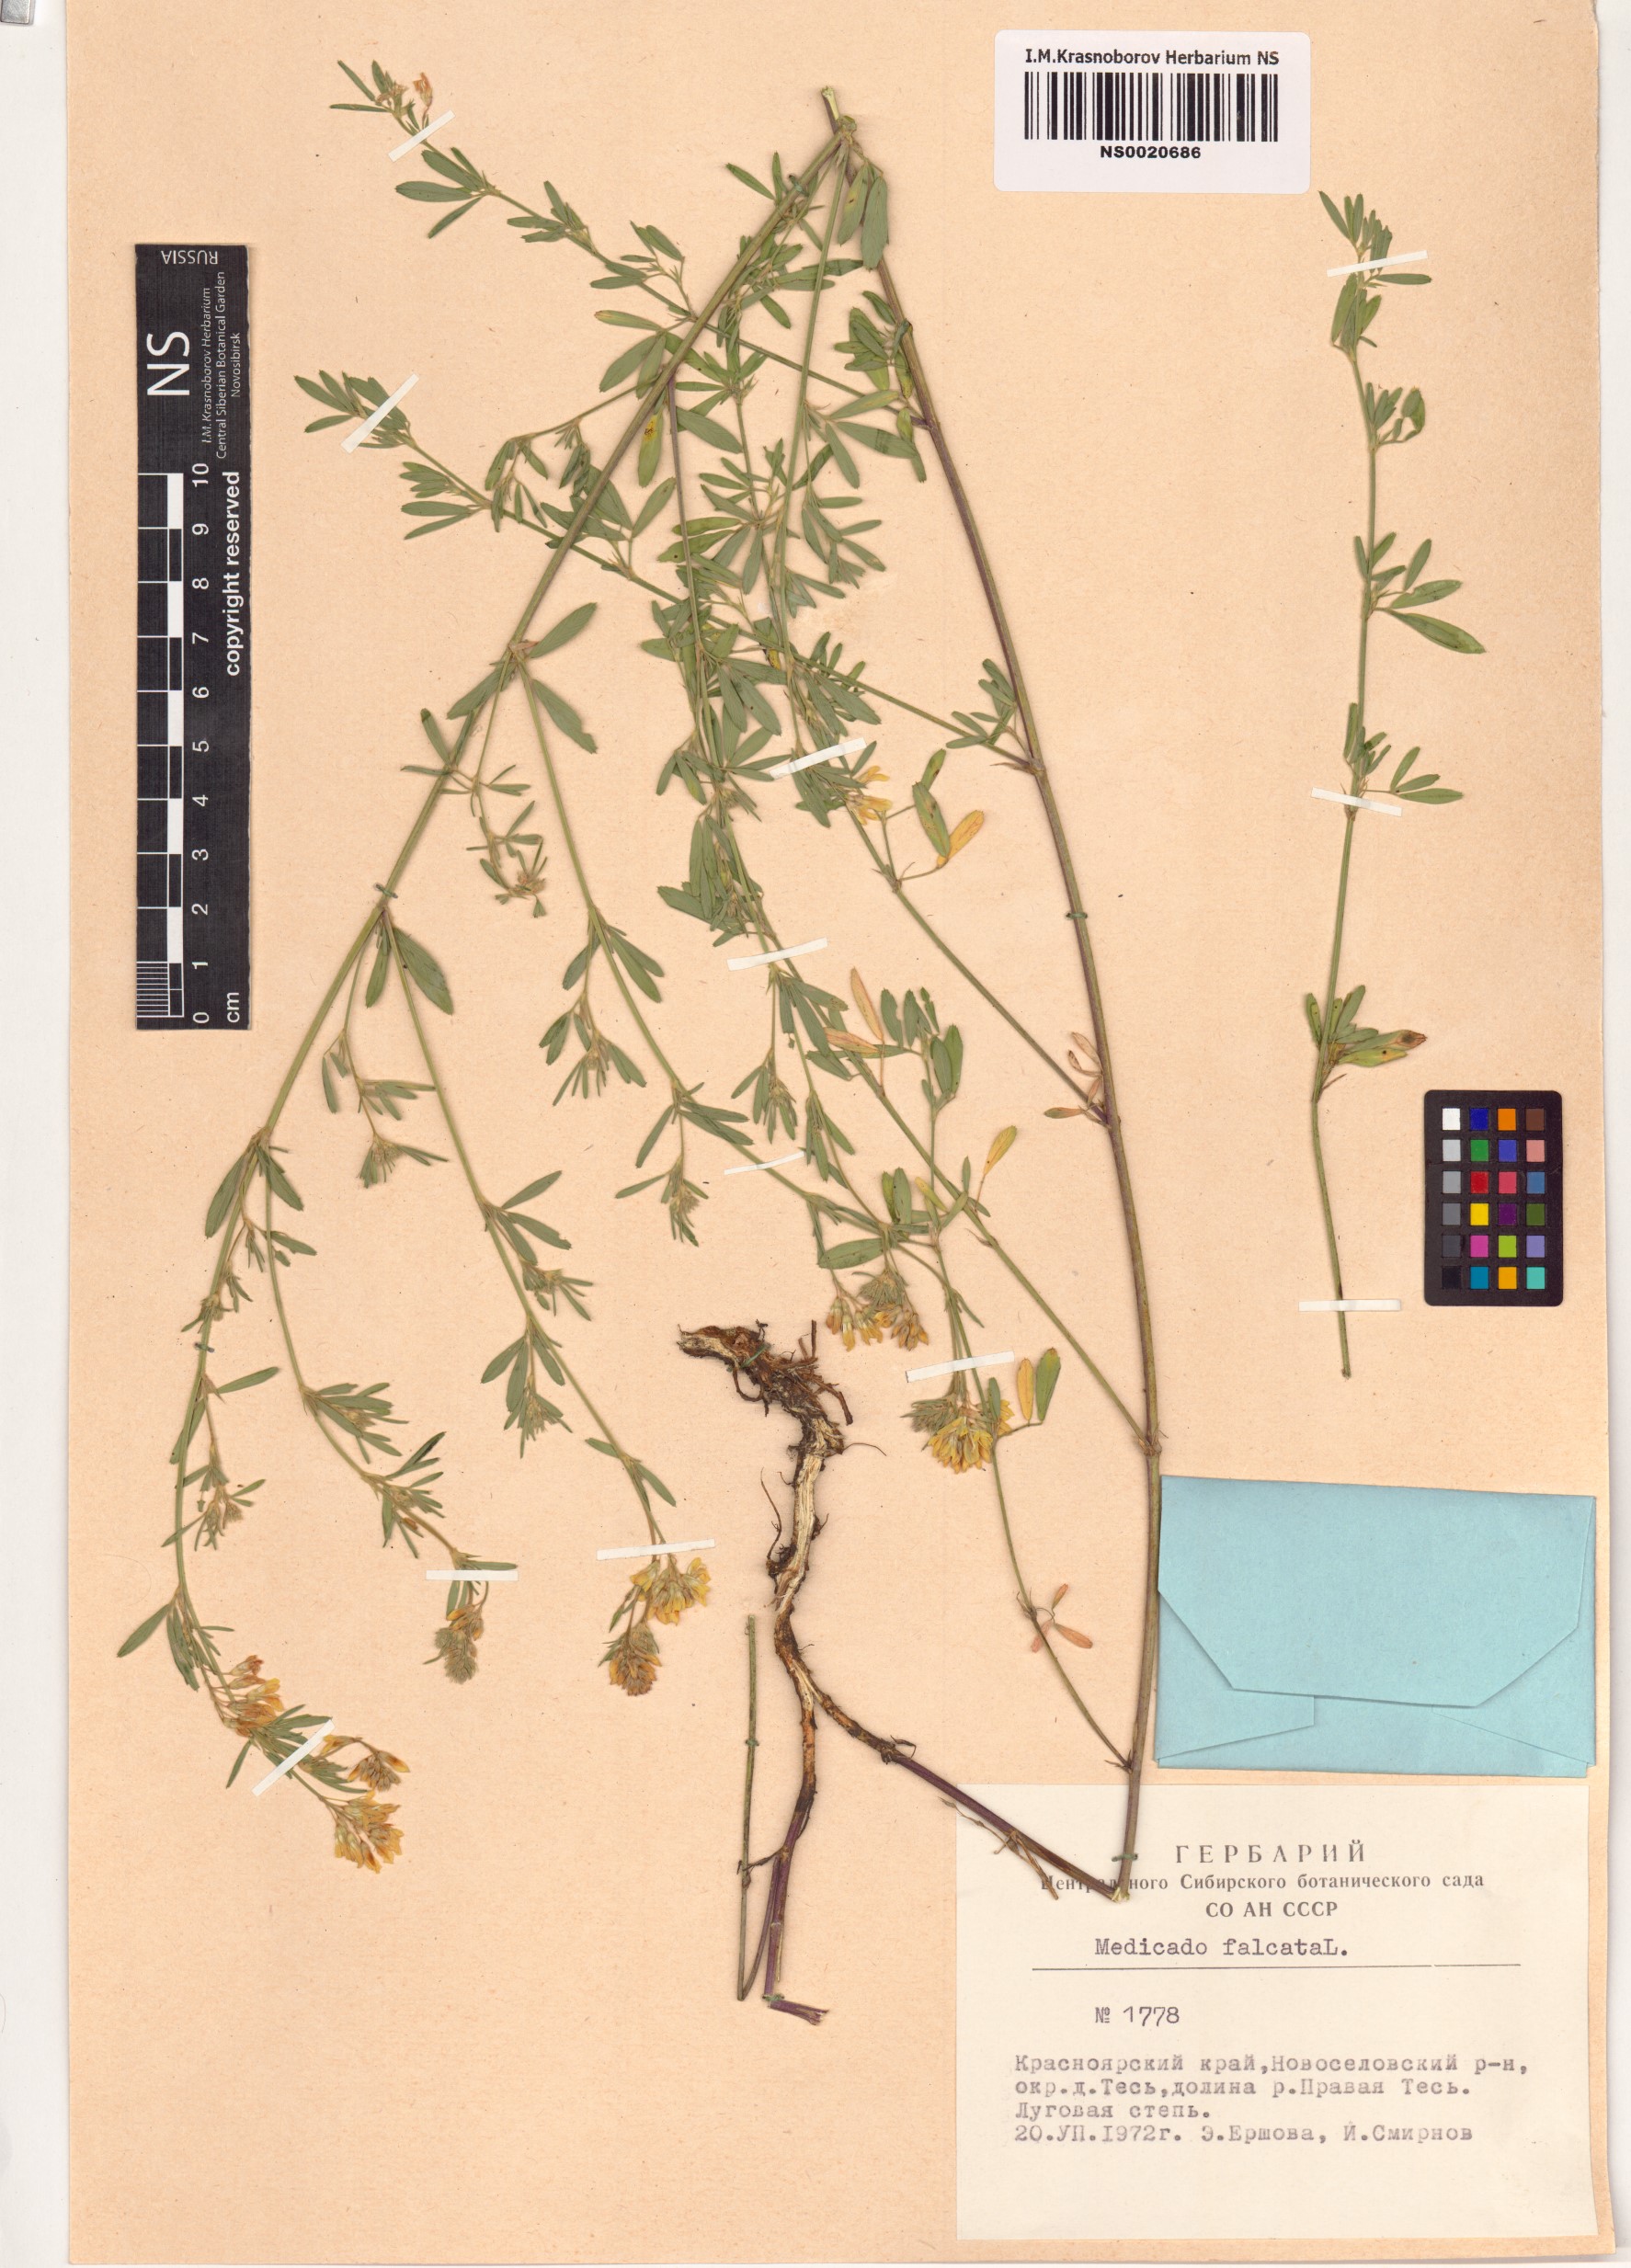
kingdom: Plantae
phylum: Tracheophyta
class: Magnoliopsida
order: Fabales
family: Fabaceae
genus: Medicago
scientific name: Medicago falcata
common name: Sickle medick
